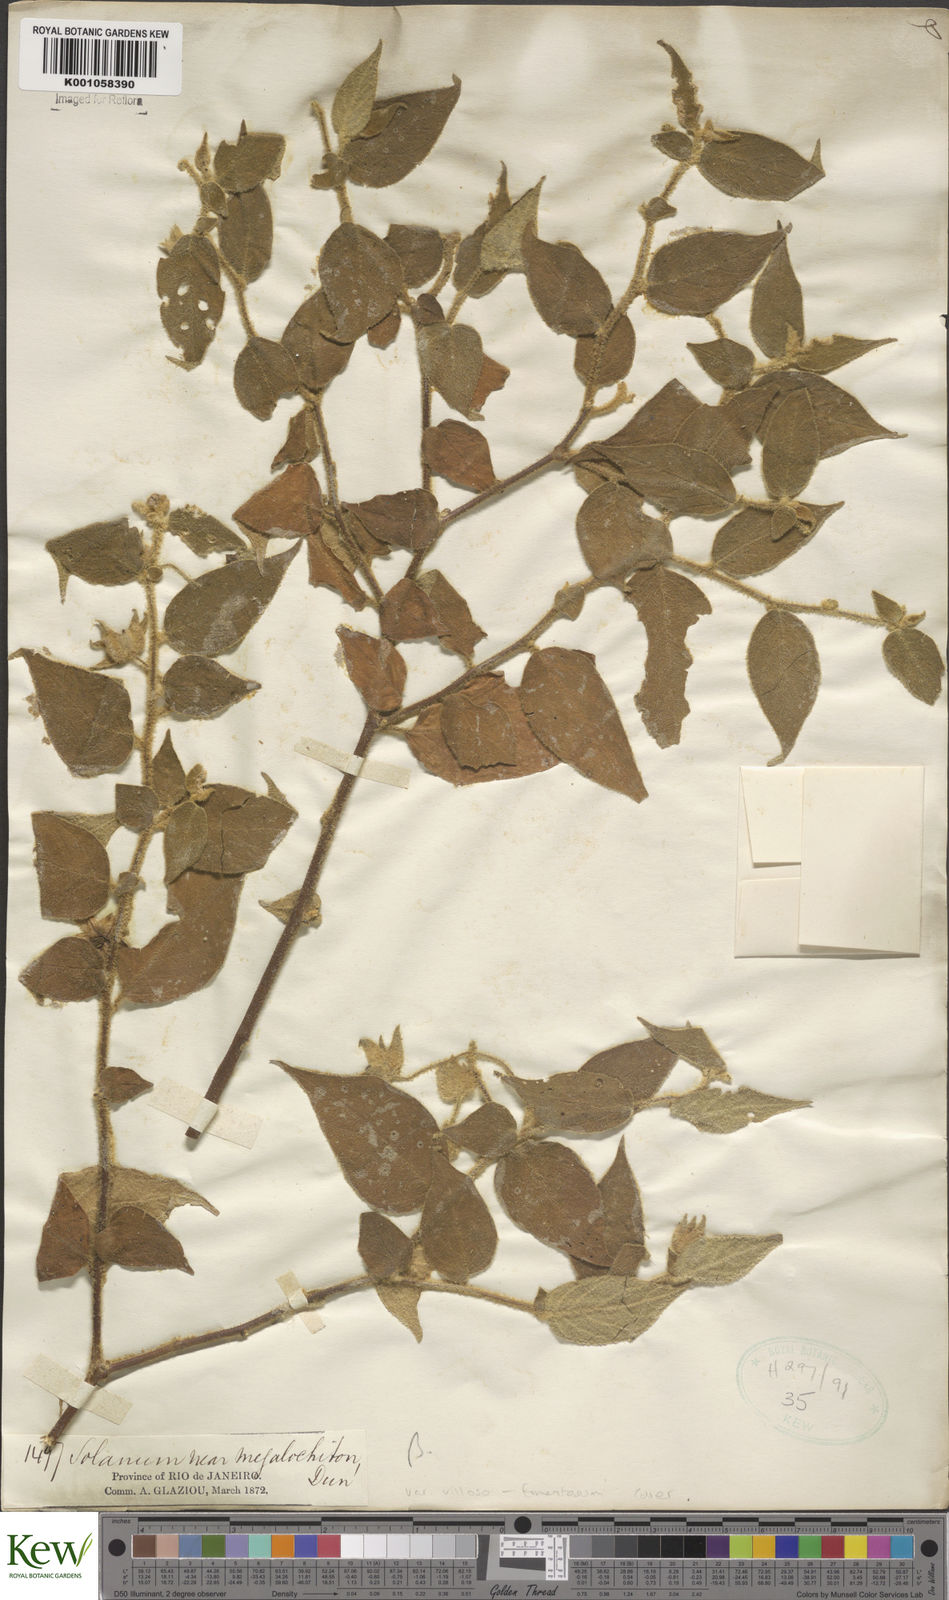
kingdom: Plantae
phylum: Tracheophyta
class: Magnoliopsida
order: Solanales
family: Solanaceae
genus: Solanum
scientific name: Solanum didymum
